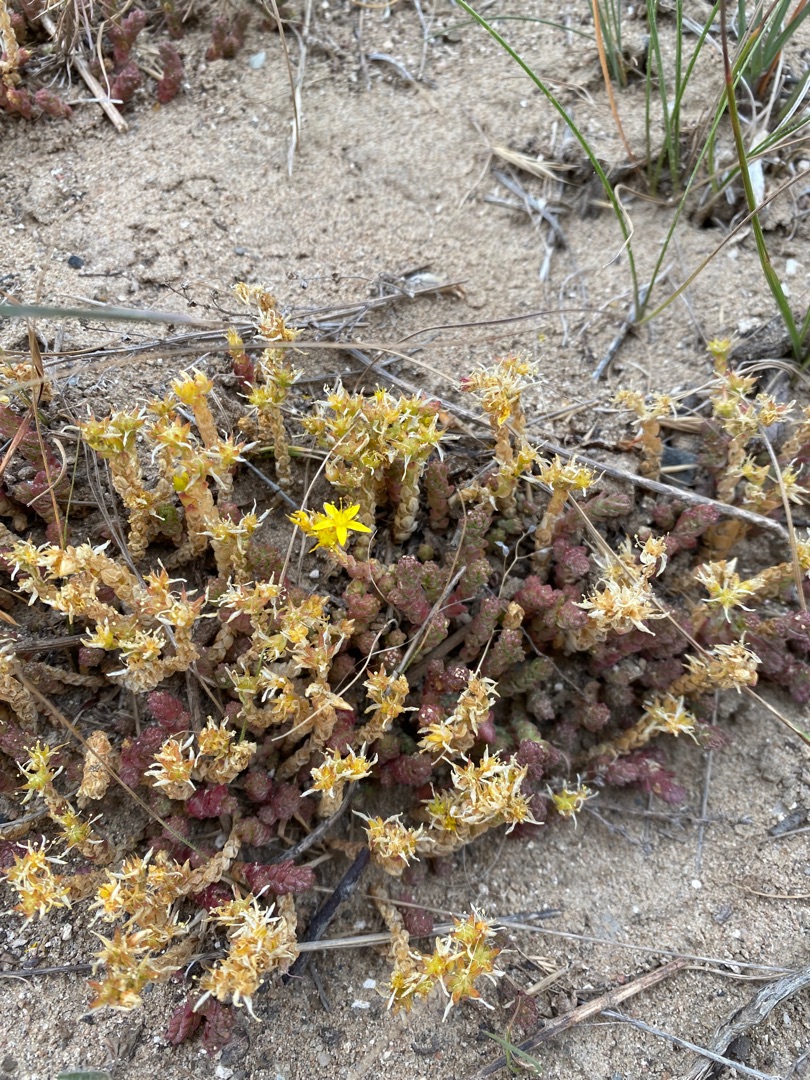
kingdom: Plantae
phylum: Tracheophyta
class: Magnoliopsida
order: Saxifragales
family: Crassulaceae
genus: Sedum
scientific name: Sedum acre
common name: Bidende stenurt
